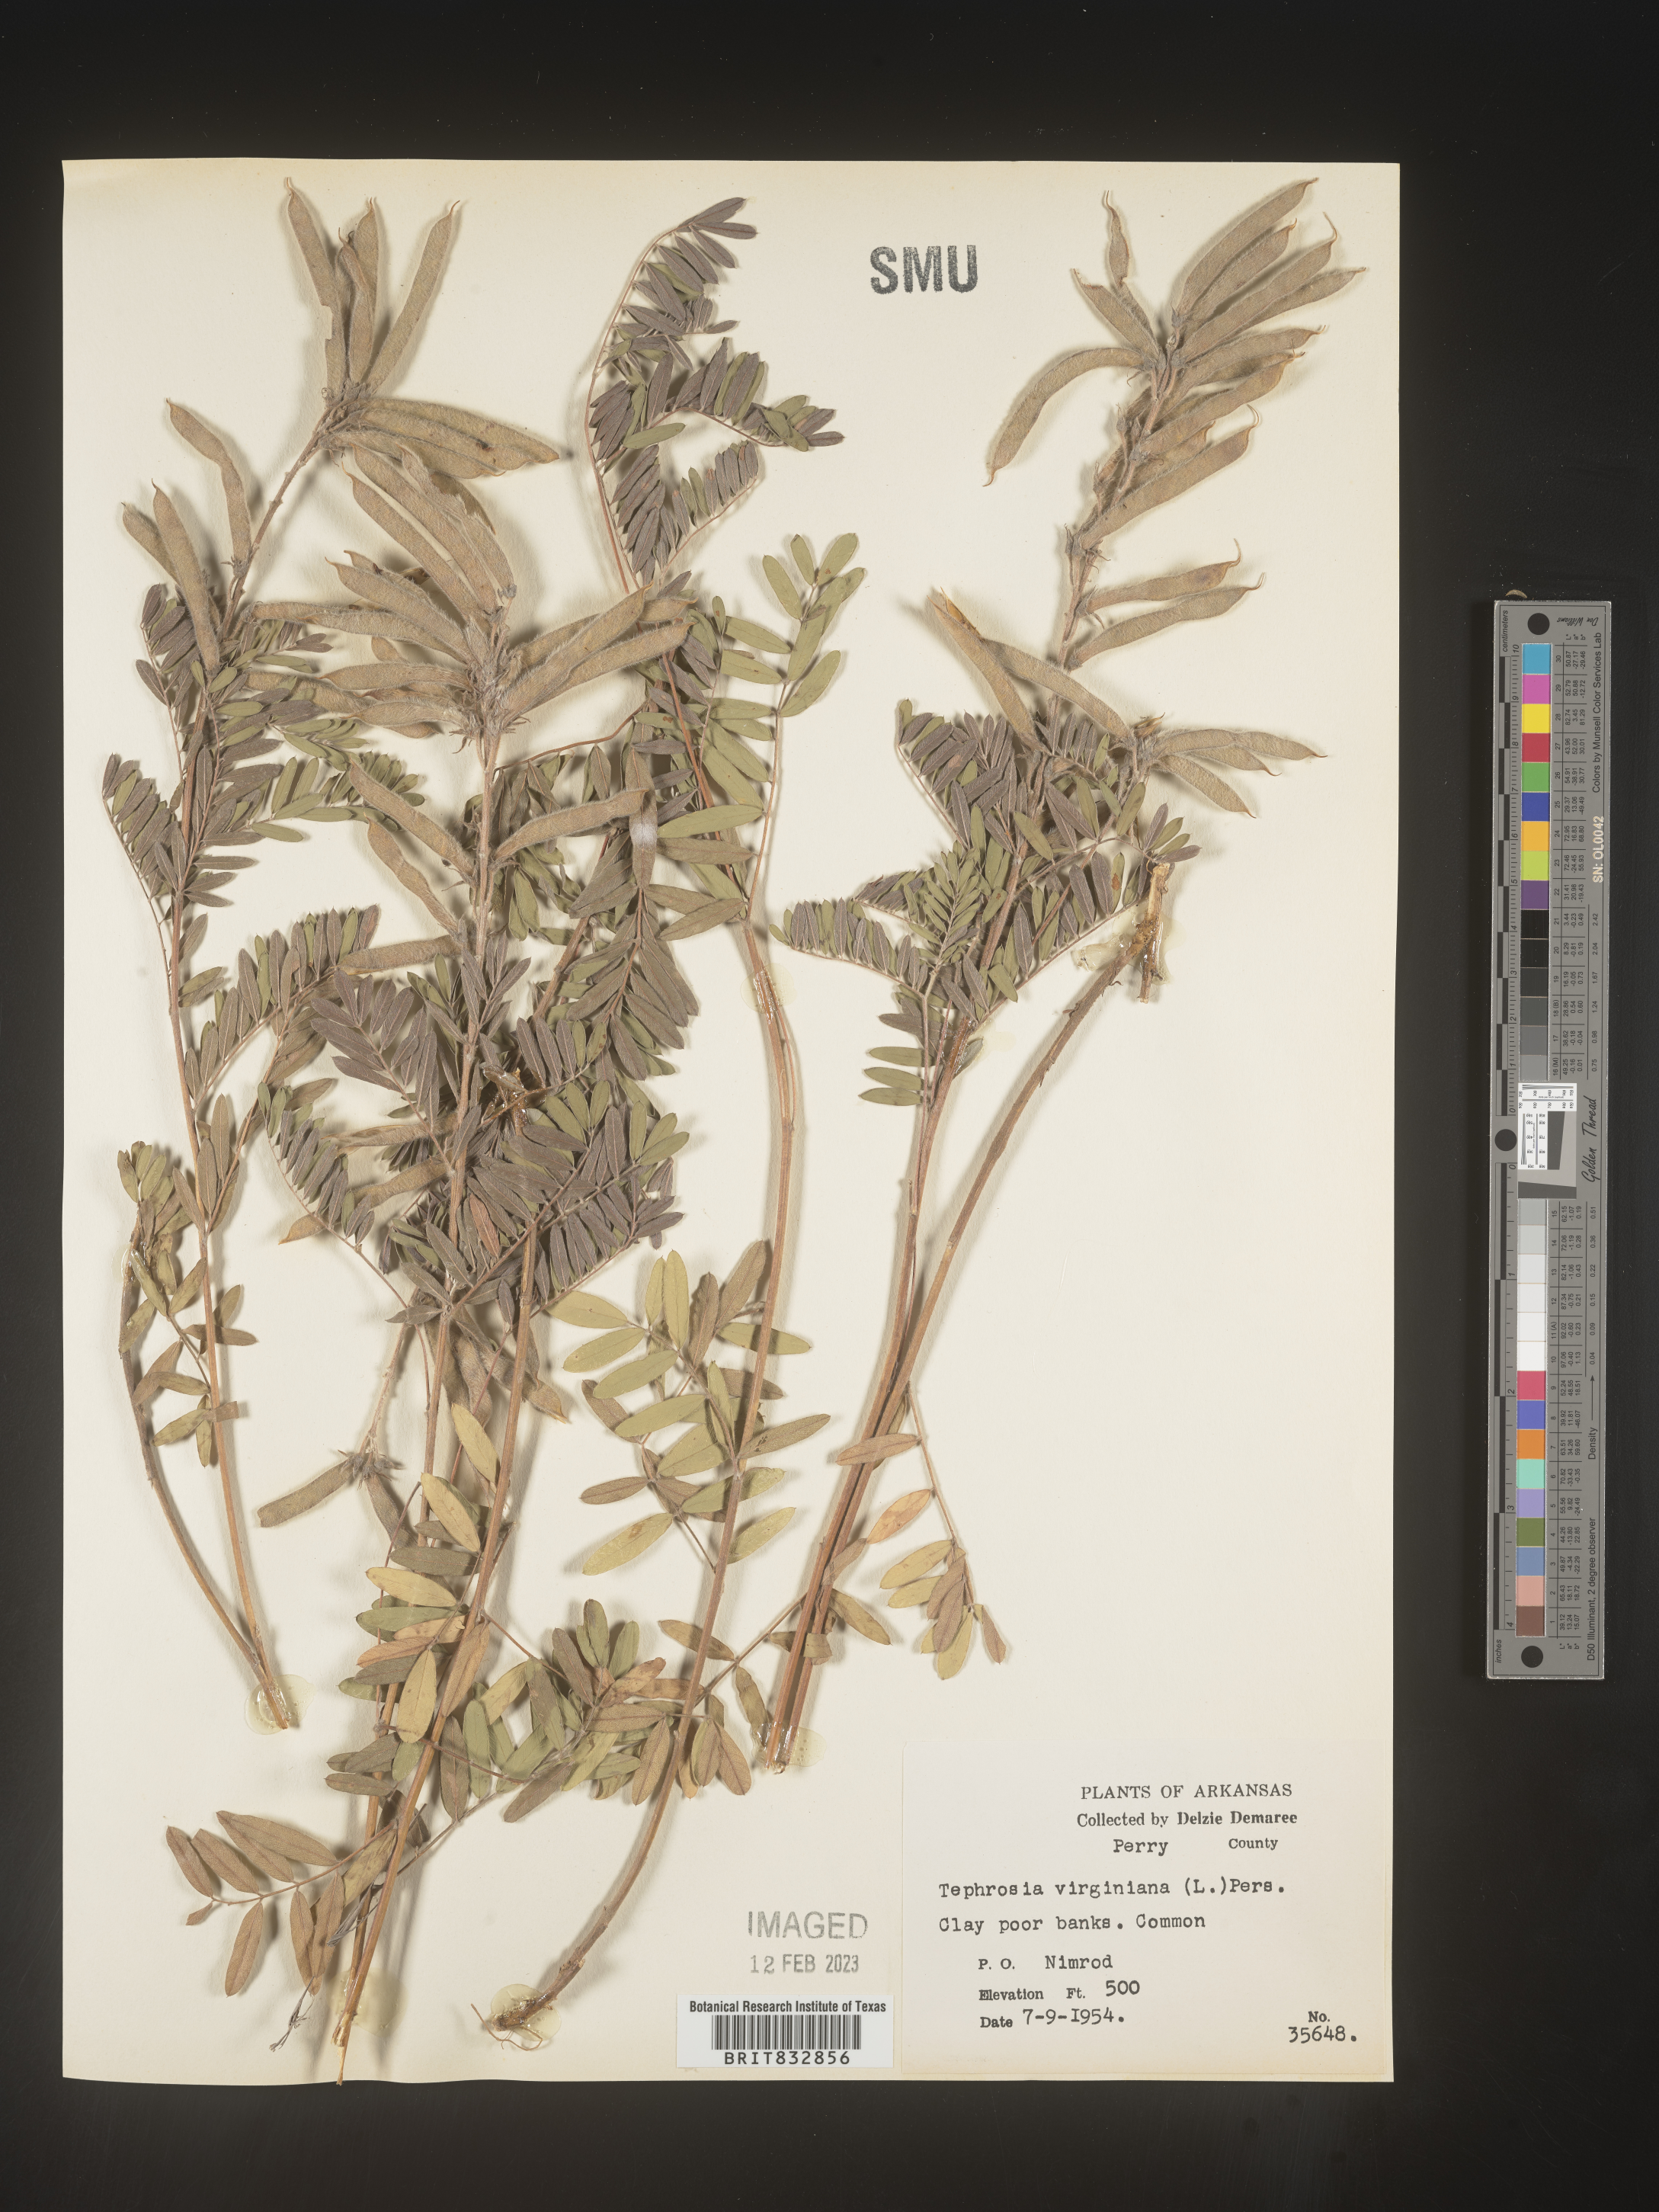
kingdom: Plantae
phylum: Tracheophyta
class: Magnoliopsida
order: Fabales
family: Fabaceae
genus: Tephrosia
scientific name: Tephrosia virginiana
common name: Rabbit-pea
